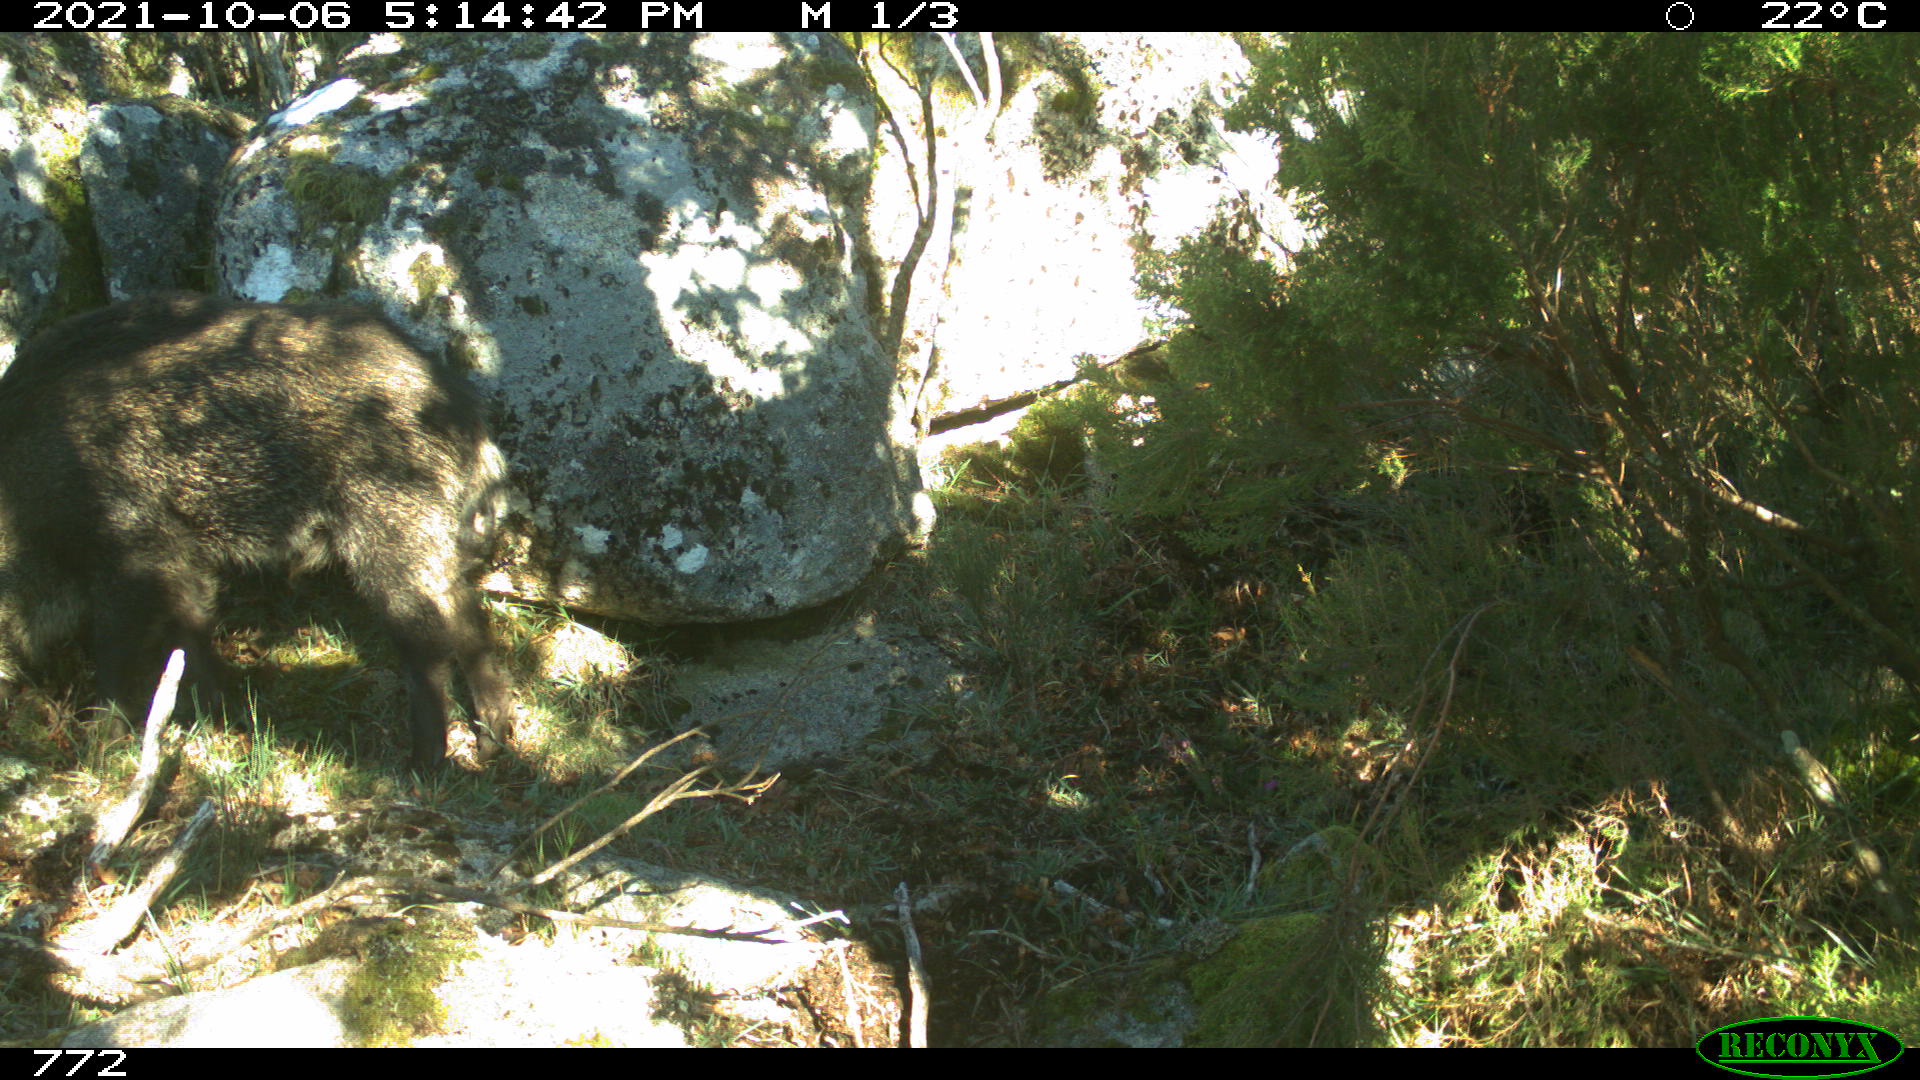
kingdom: Animalia
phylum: Chordata
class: Mammalia
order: Artiodactyla
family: Suidae
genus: Sus
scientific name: Sus scrofa
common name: Wild boar
